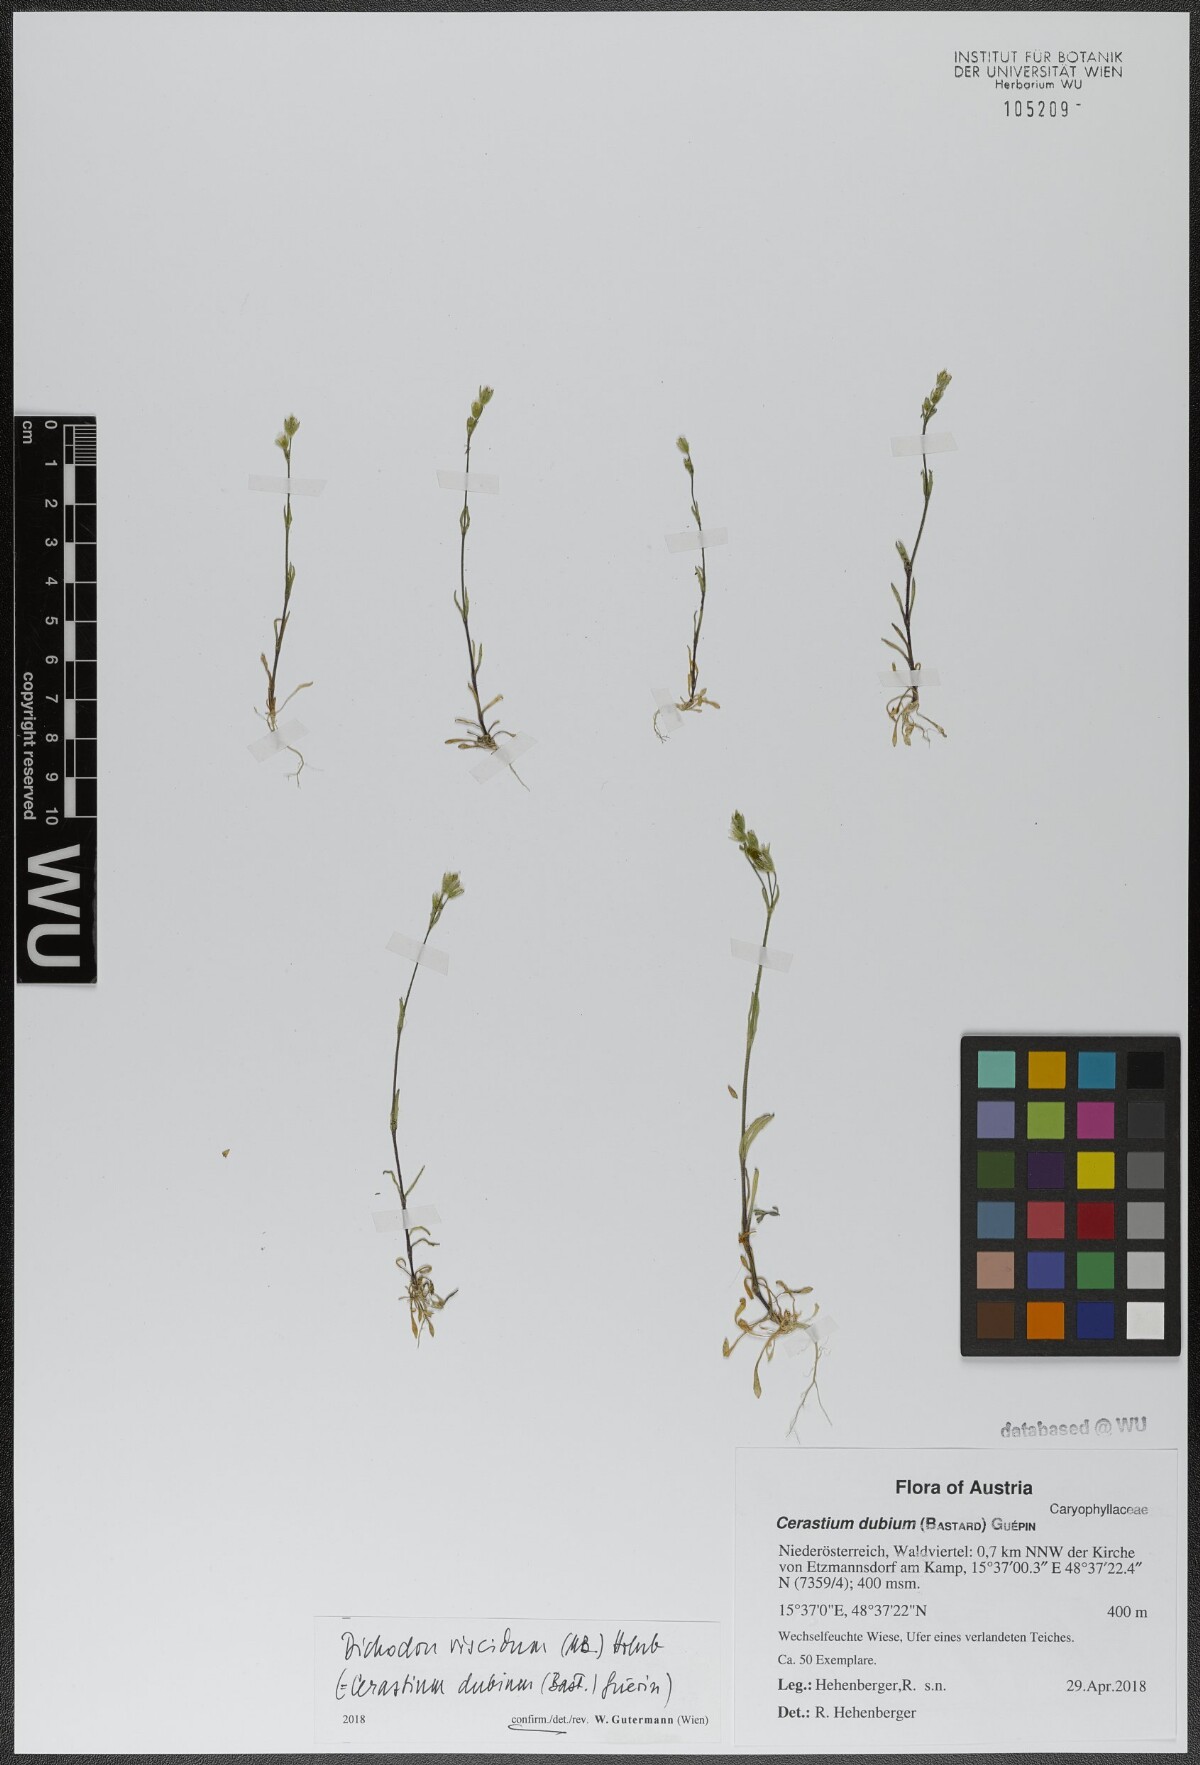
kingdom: Plantae
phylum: Tracheophyta
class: Magnoliopsida
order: Caryophyllales
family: Caryophyllaceae
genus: Dichodon
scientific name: Dichodon viscidum
